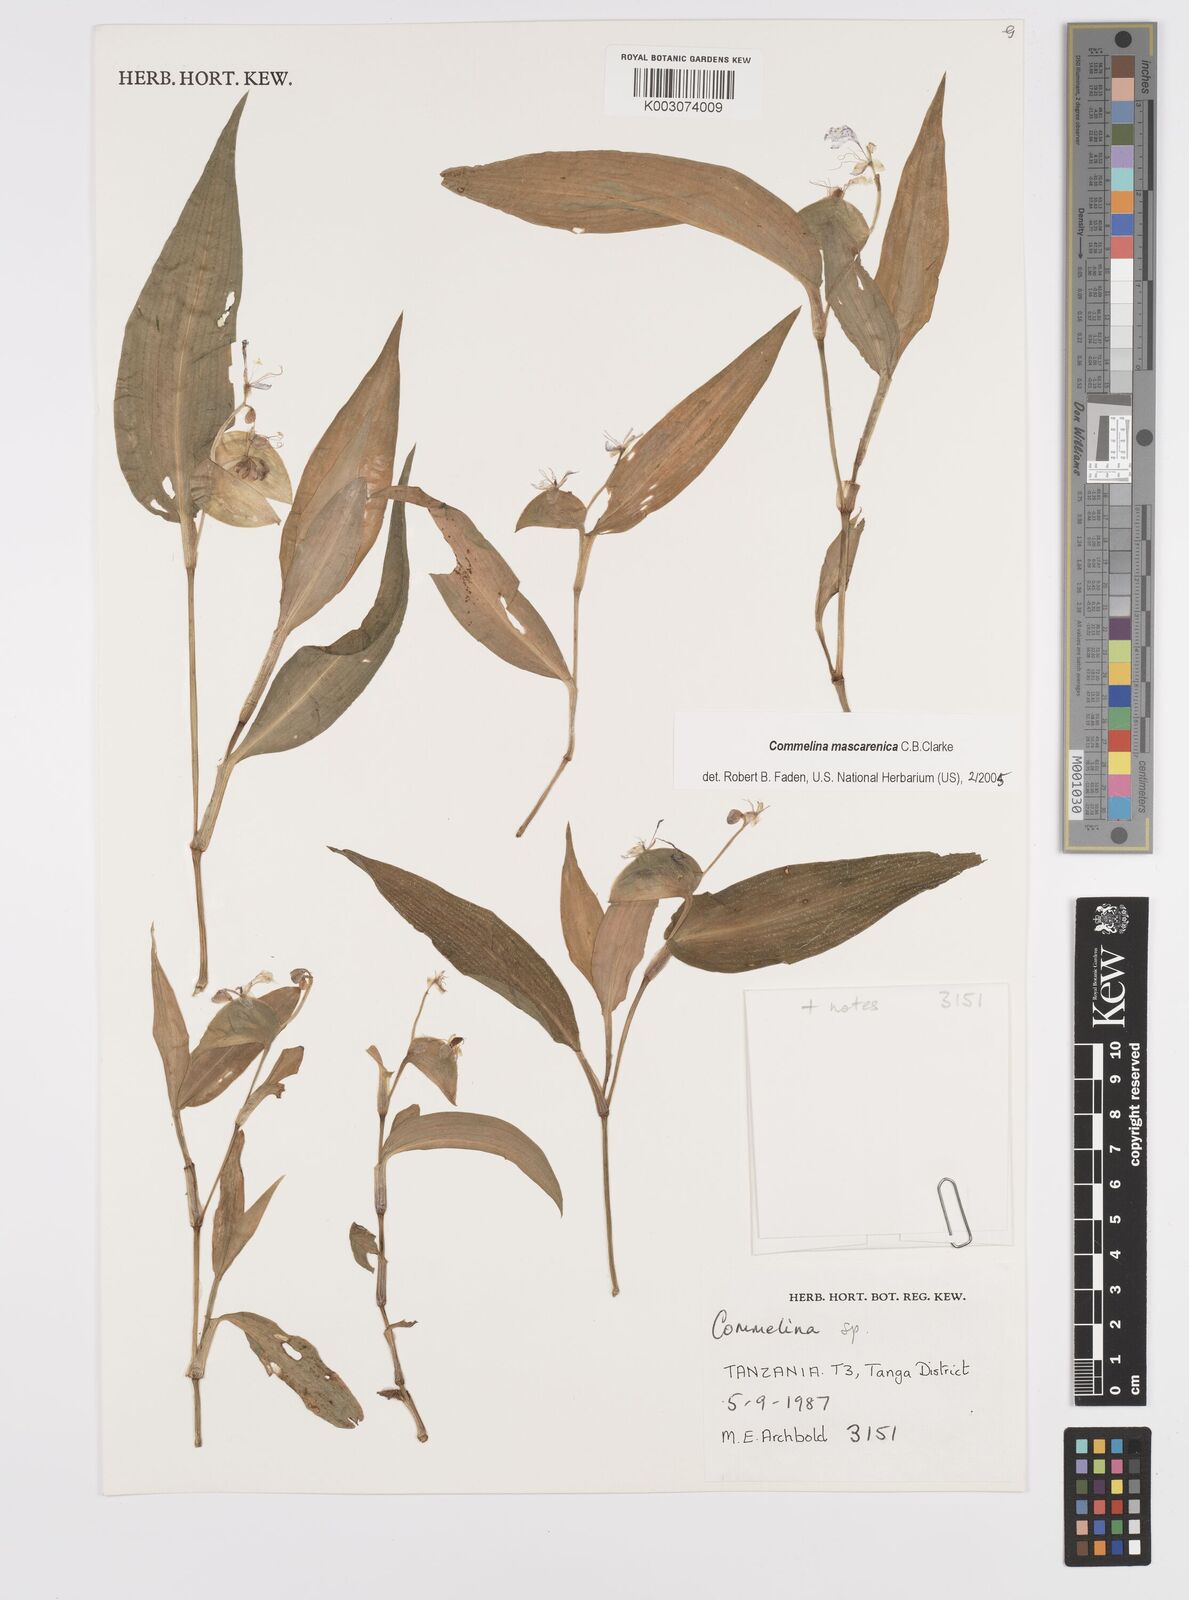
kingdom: Plantae
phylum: Tracheophyta
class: Liliopsida
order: Commelinales
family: Commelinaceae
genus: Commelina
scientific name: Commelina mascarenica
